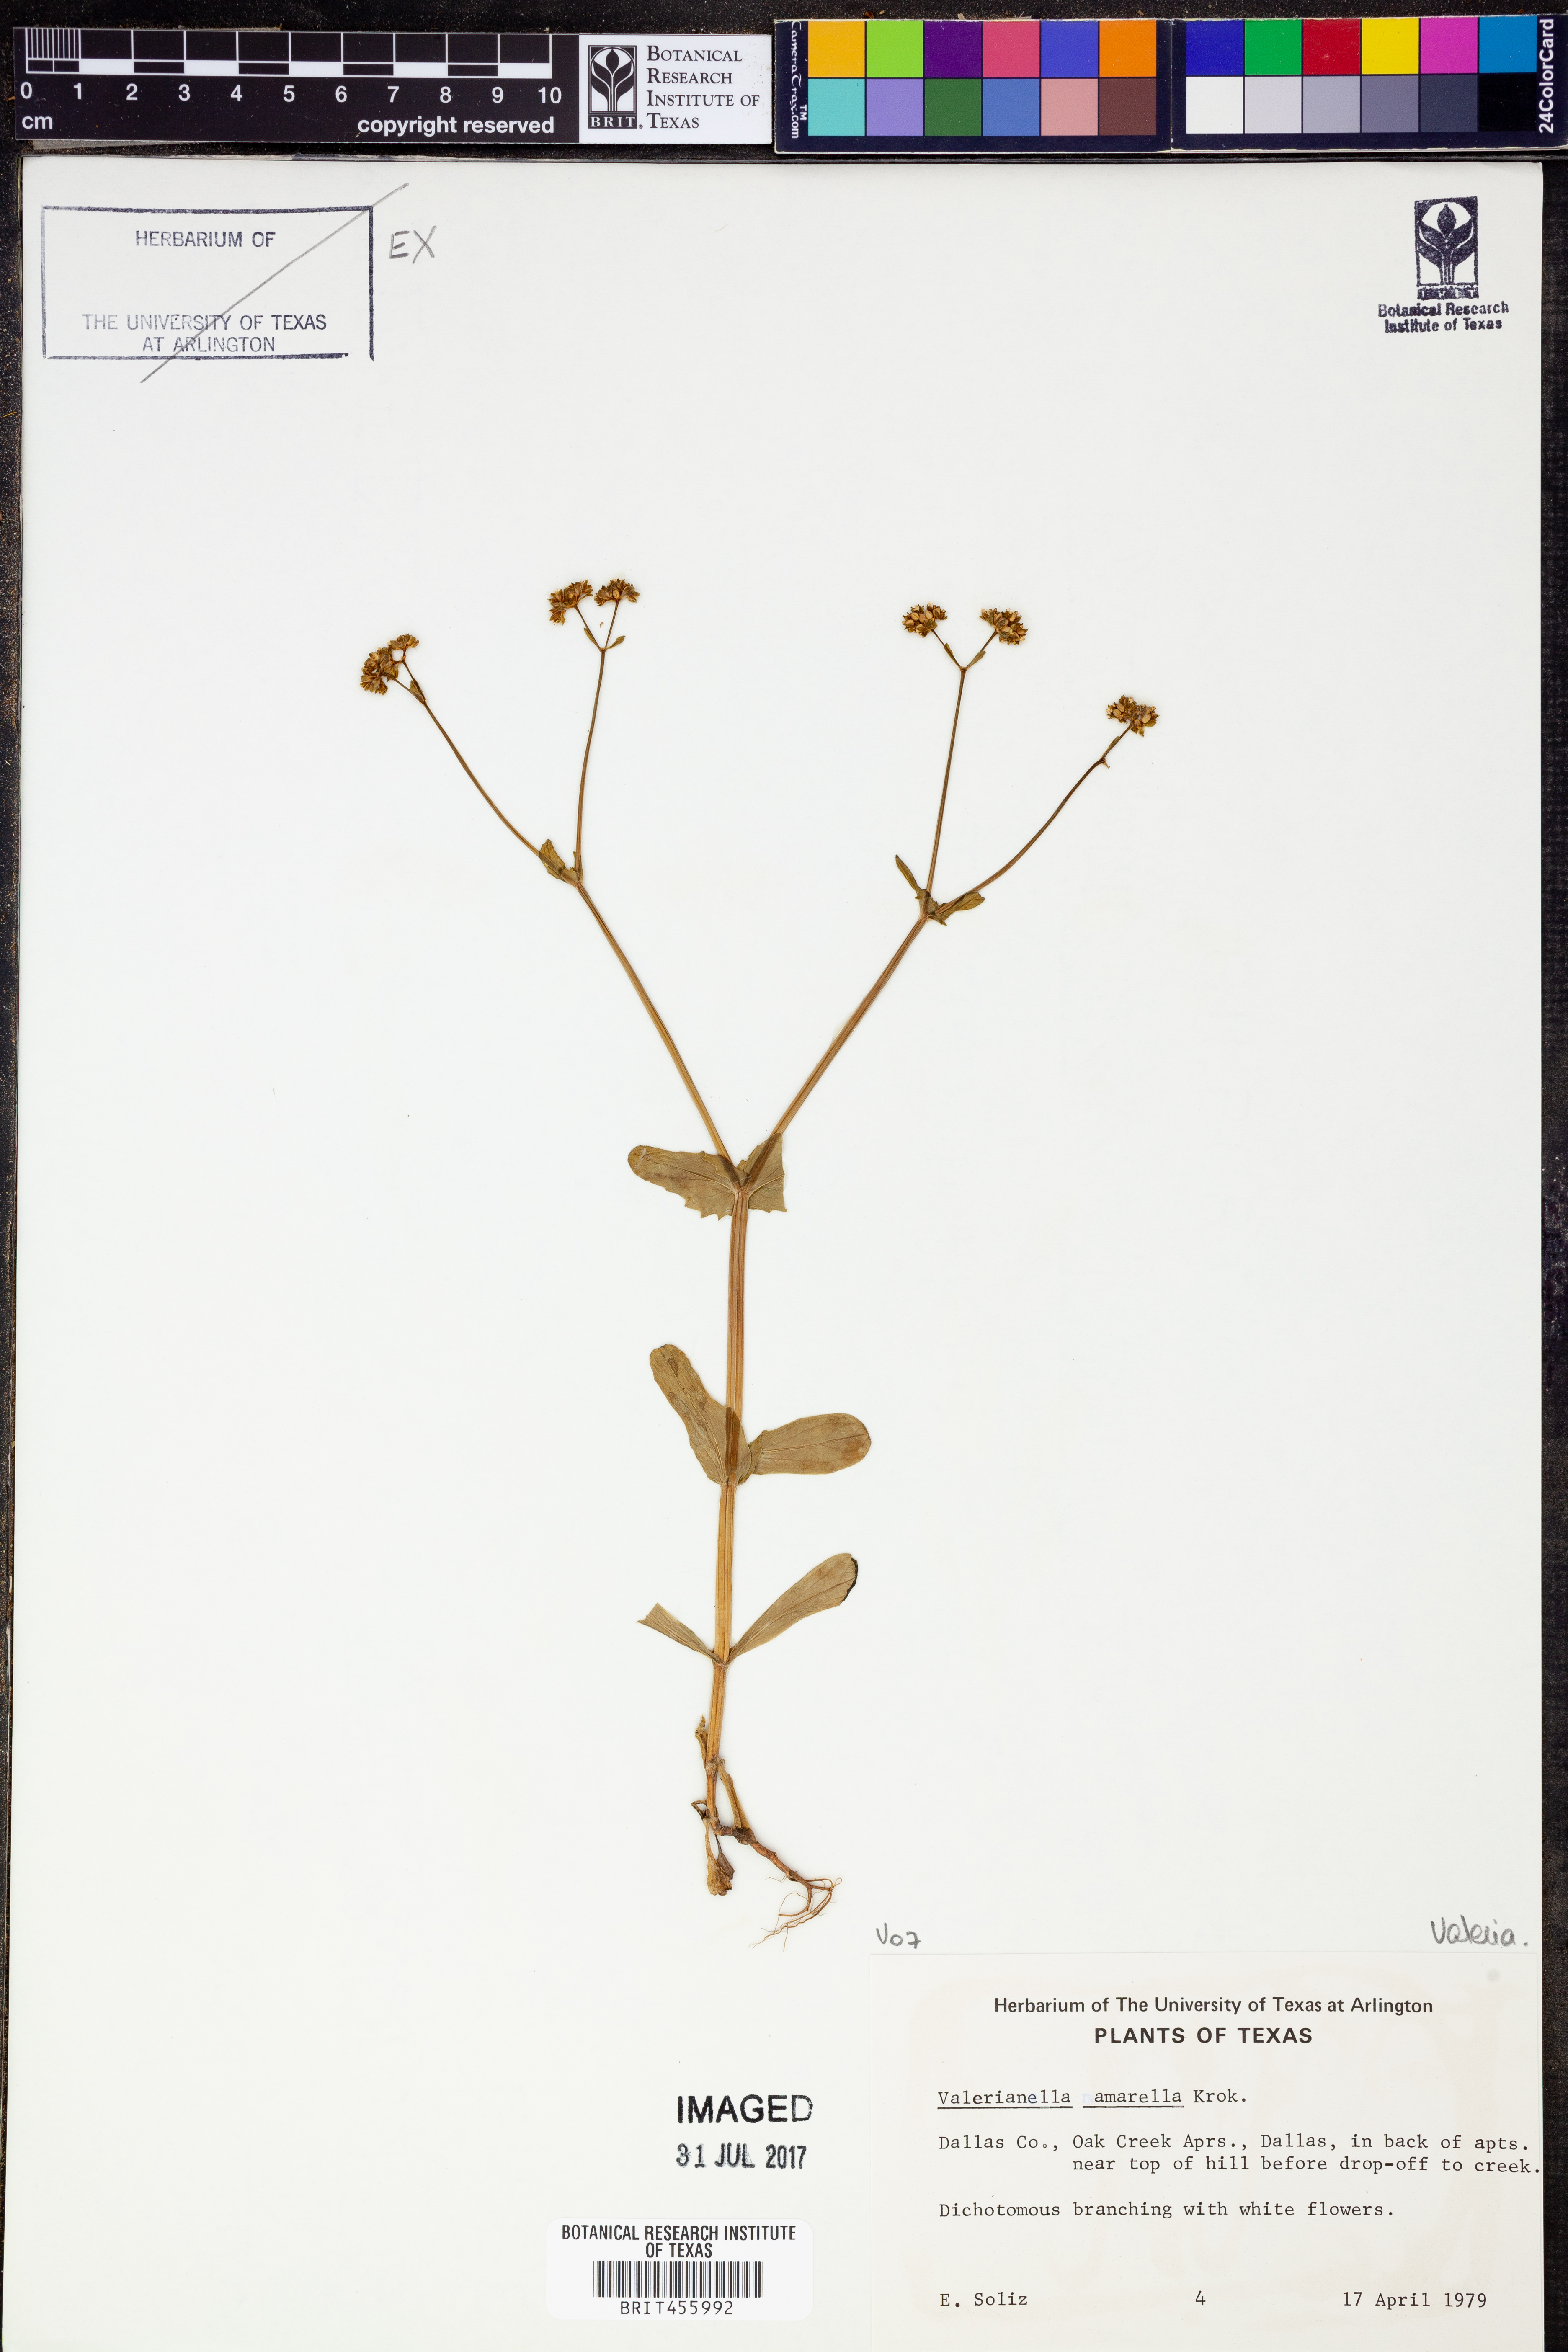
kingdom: Plantae
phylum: Tracheophyta
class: Magnoliopsida
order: Dipsacales
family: Caprifoliaceae
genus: Valerianella
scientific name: Valerianella amarella
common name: Hariy cornsalad
